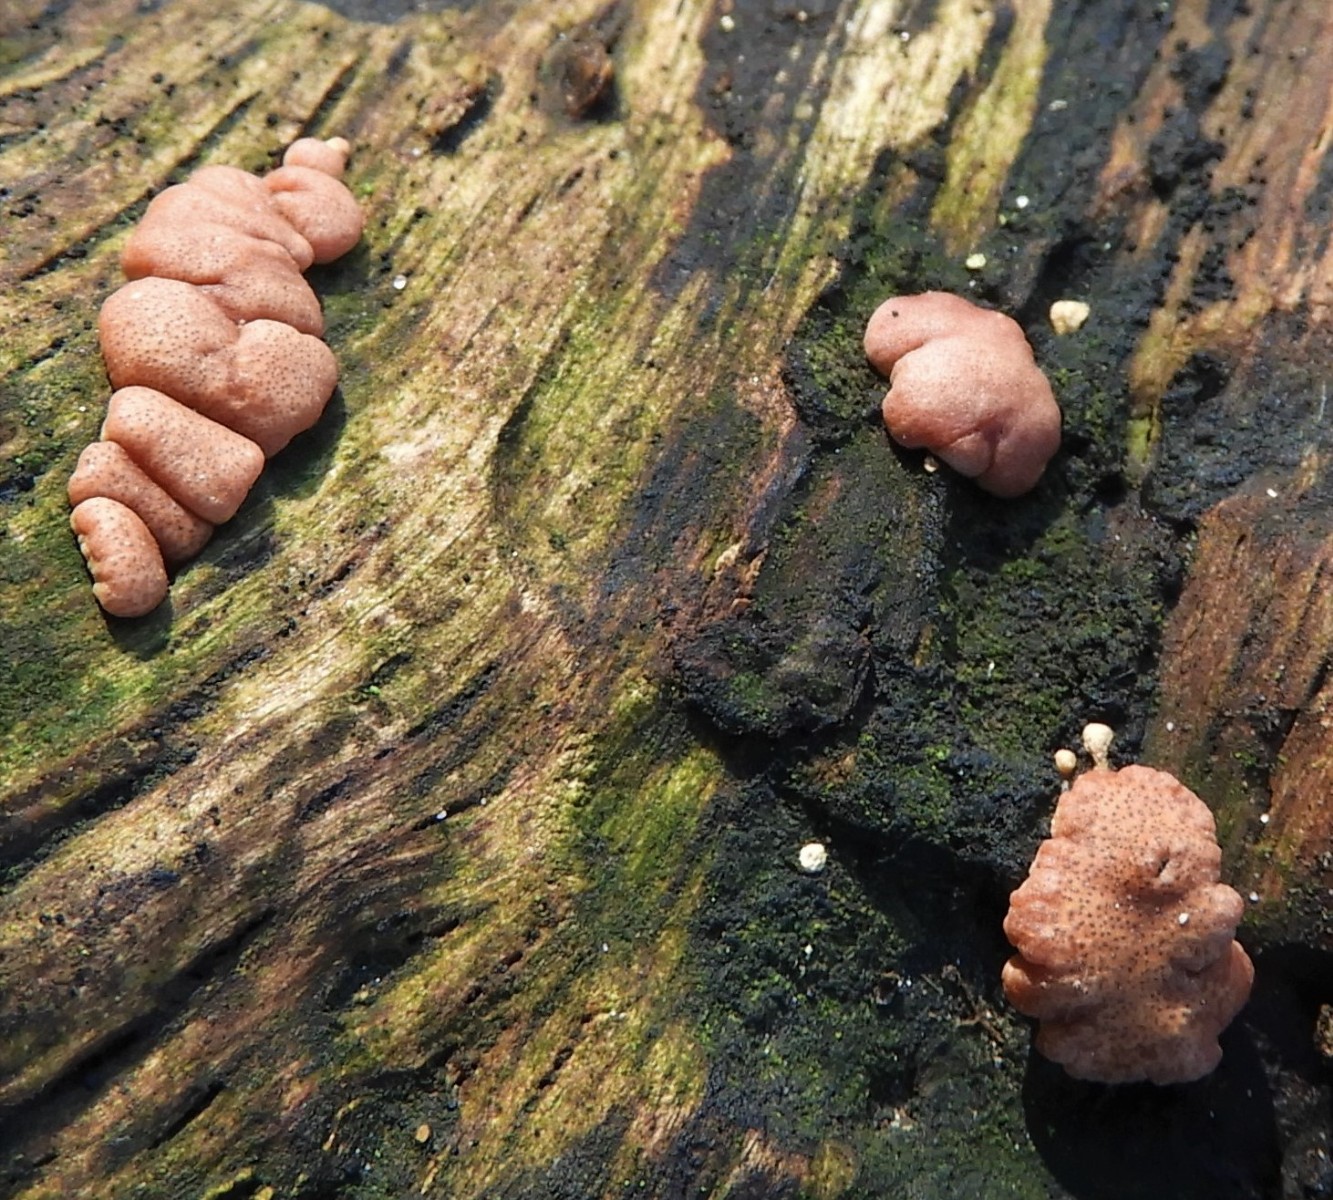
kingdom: Fungi
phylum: Ascomycota
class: Sordariomycetes
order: Hypocreales
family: Hypocreaceae
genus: Trichoderma
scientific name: Trichoderma europaeum
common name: rosabrun kødkerne
